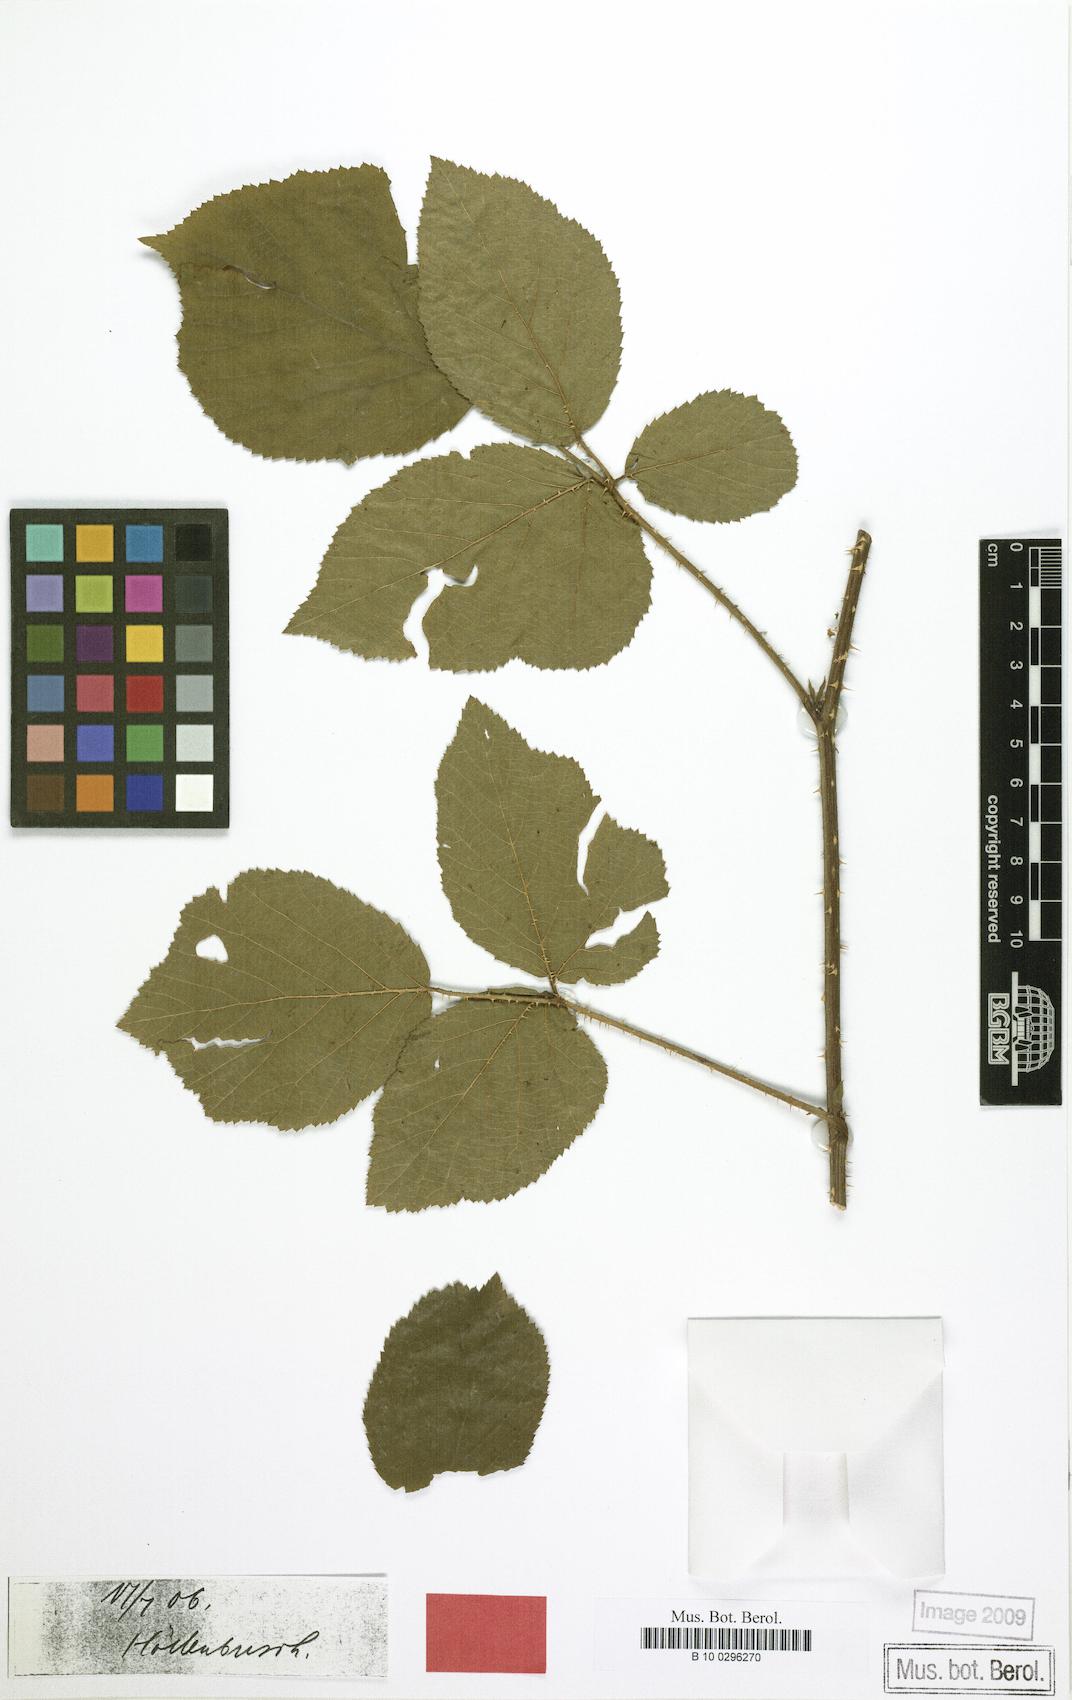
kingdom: Plantae
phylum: Tracheophyta
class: Magnoliopsida
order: Rosales
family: Rosaceae
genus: Rubus
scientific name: Rubus platydactylus
